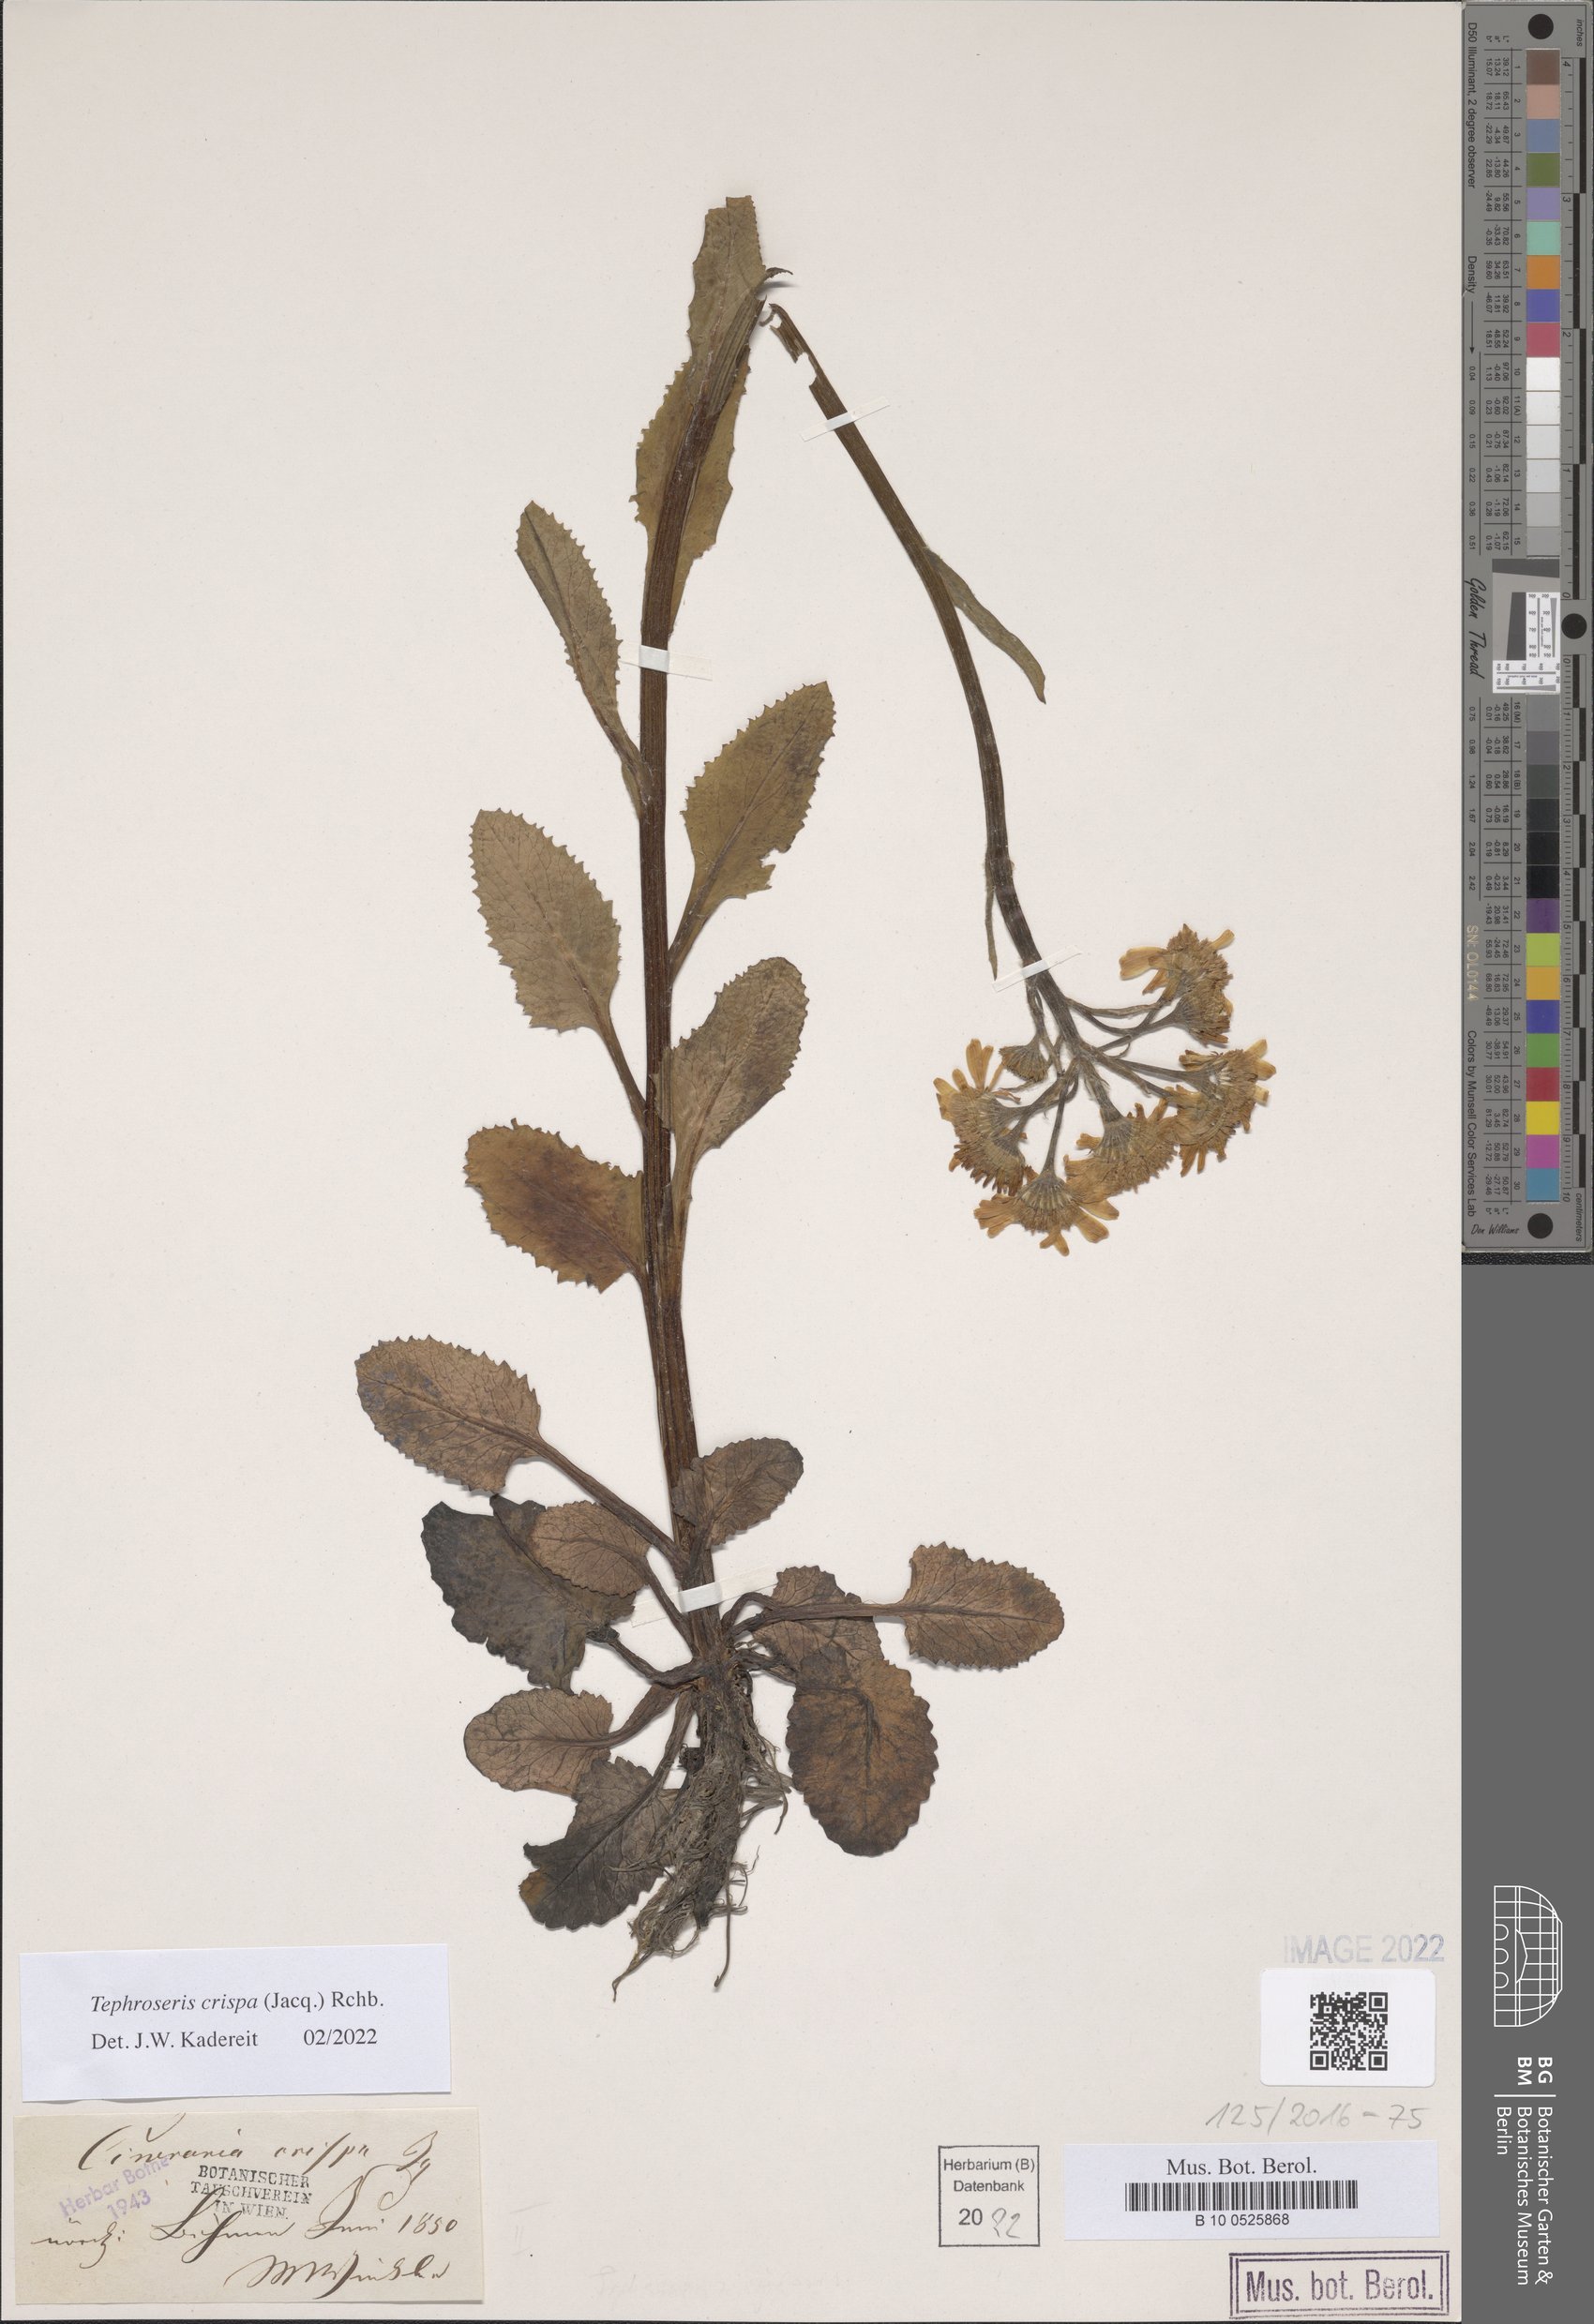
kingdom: Plantae
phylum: Tracheophyta
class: Magnoliopsida
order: Asterales
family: Asteraceae
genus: Tephroseris
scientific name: Tephroseris crispa
